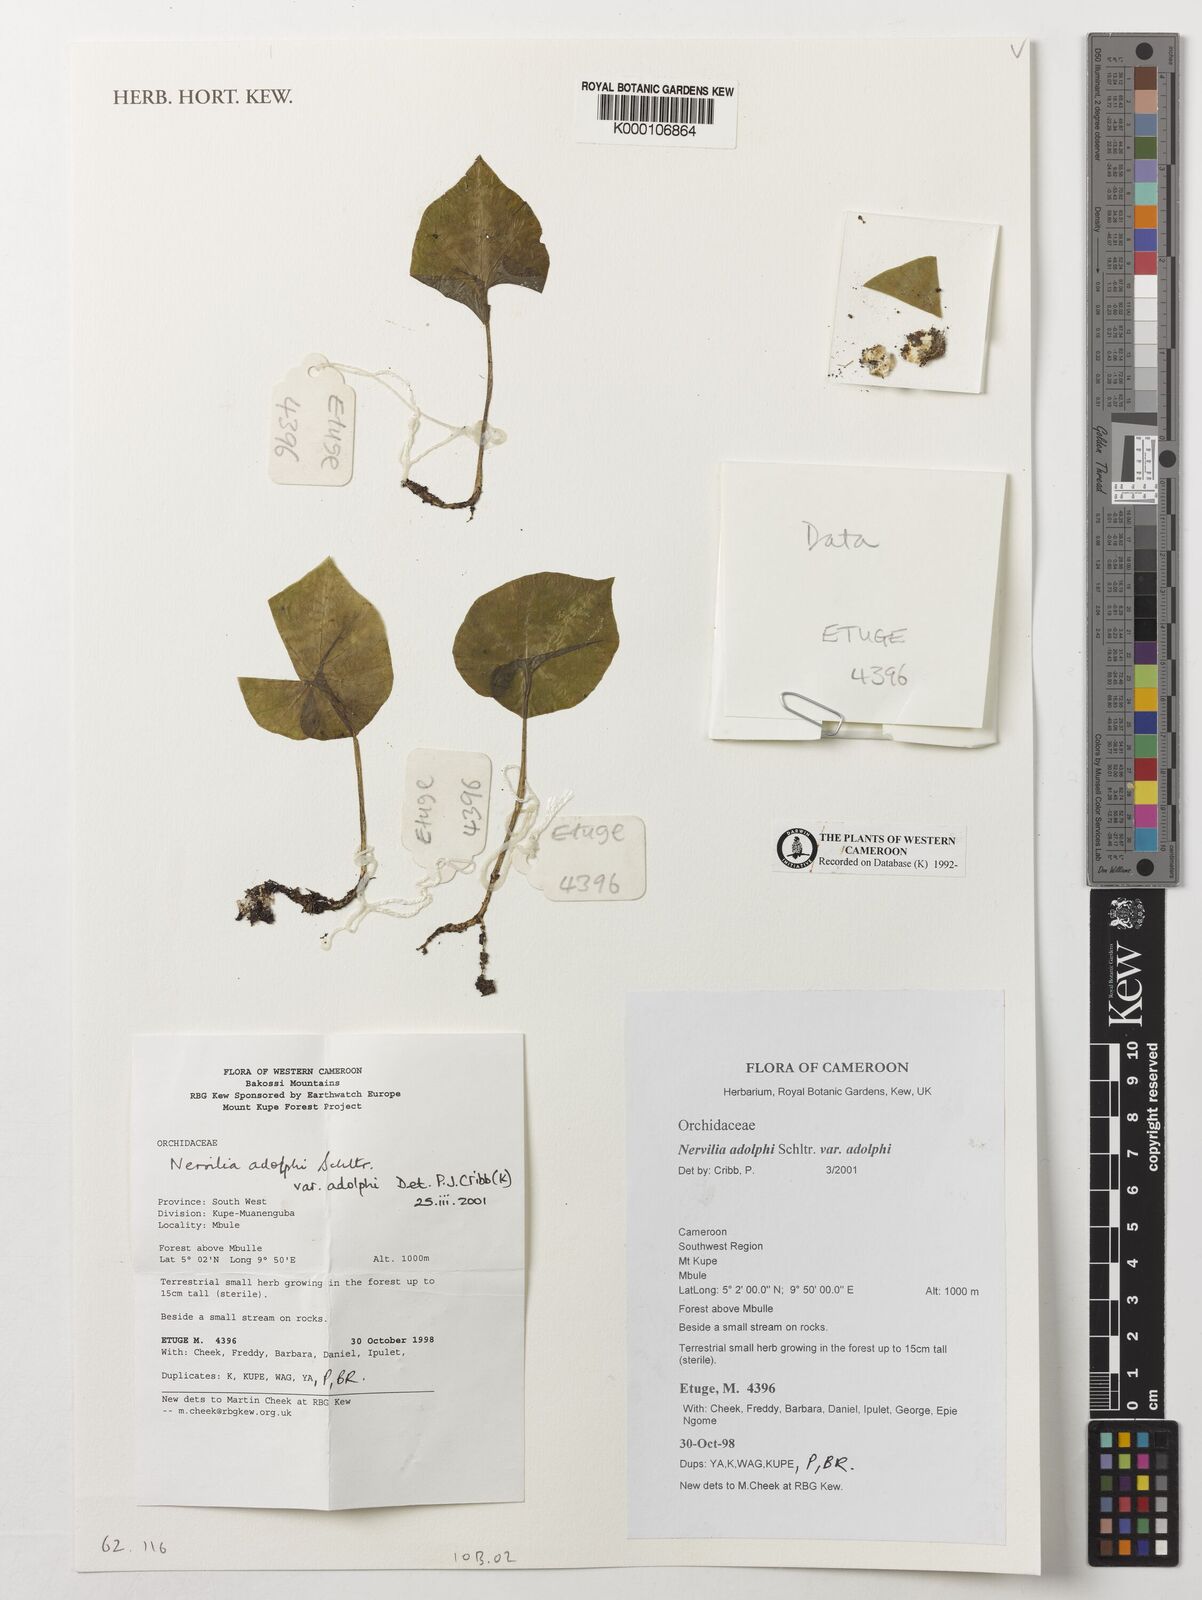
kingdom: Plantae
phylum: Tracheophyta
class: Liliopsida
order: Asparagales
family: Orchidaceae
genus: Nervilia
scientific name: Nervilia adolphi
